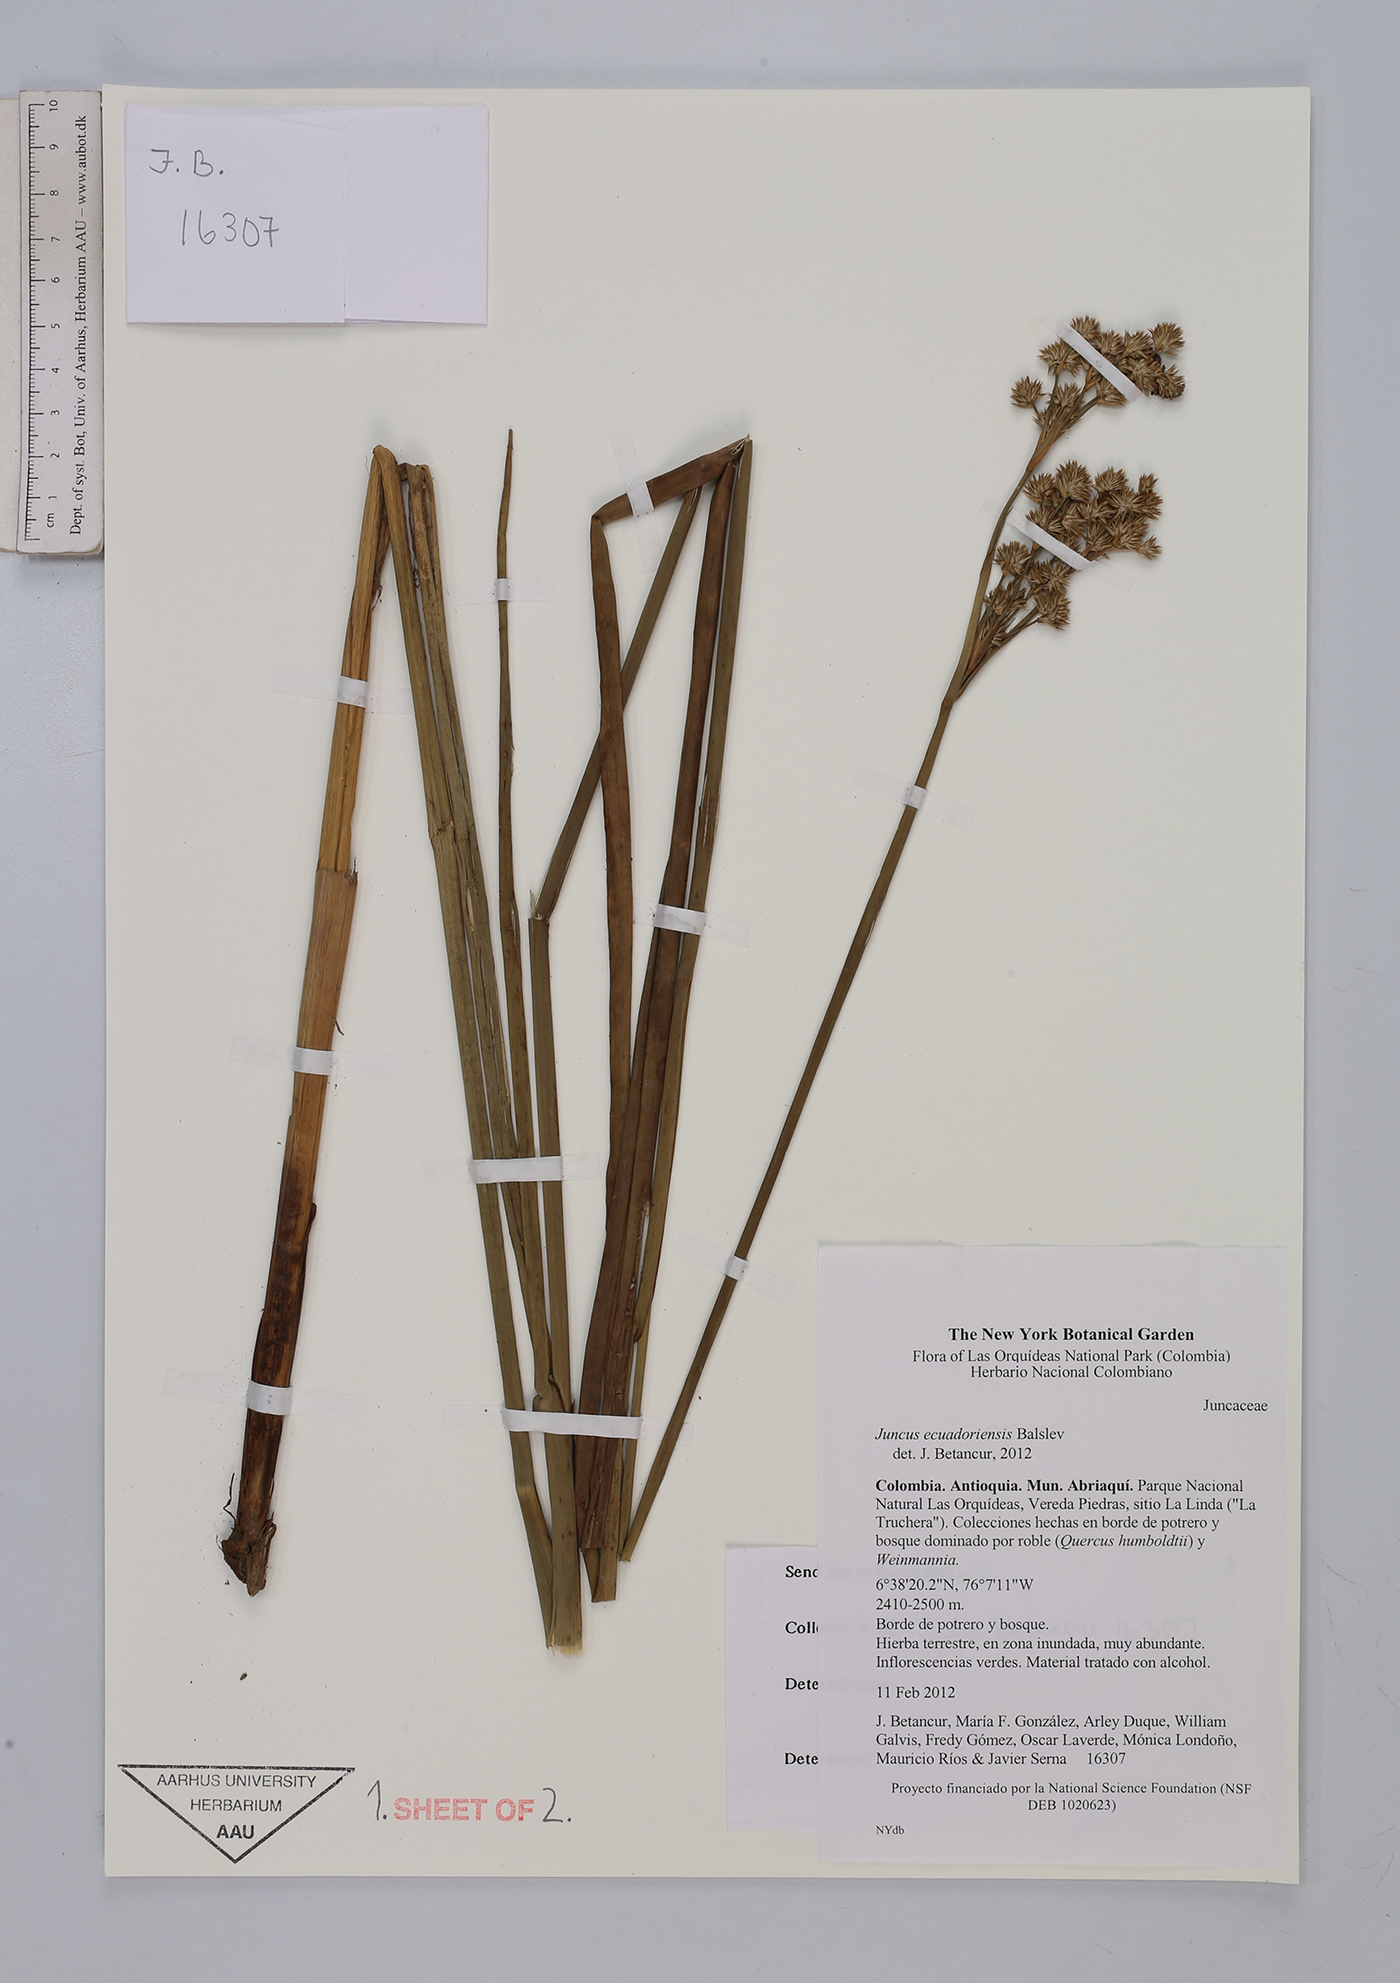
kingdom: Plantae
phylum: Tracheophyta
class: Liliopsida
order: Poales
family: Juncaceae
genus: Juncus
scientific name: Juncus ecuadoriensis
